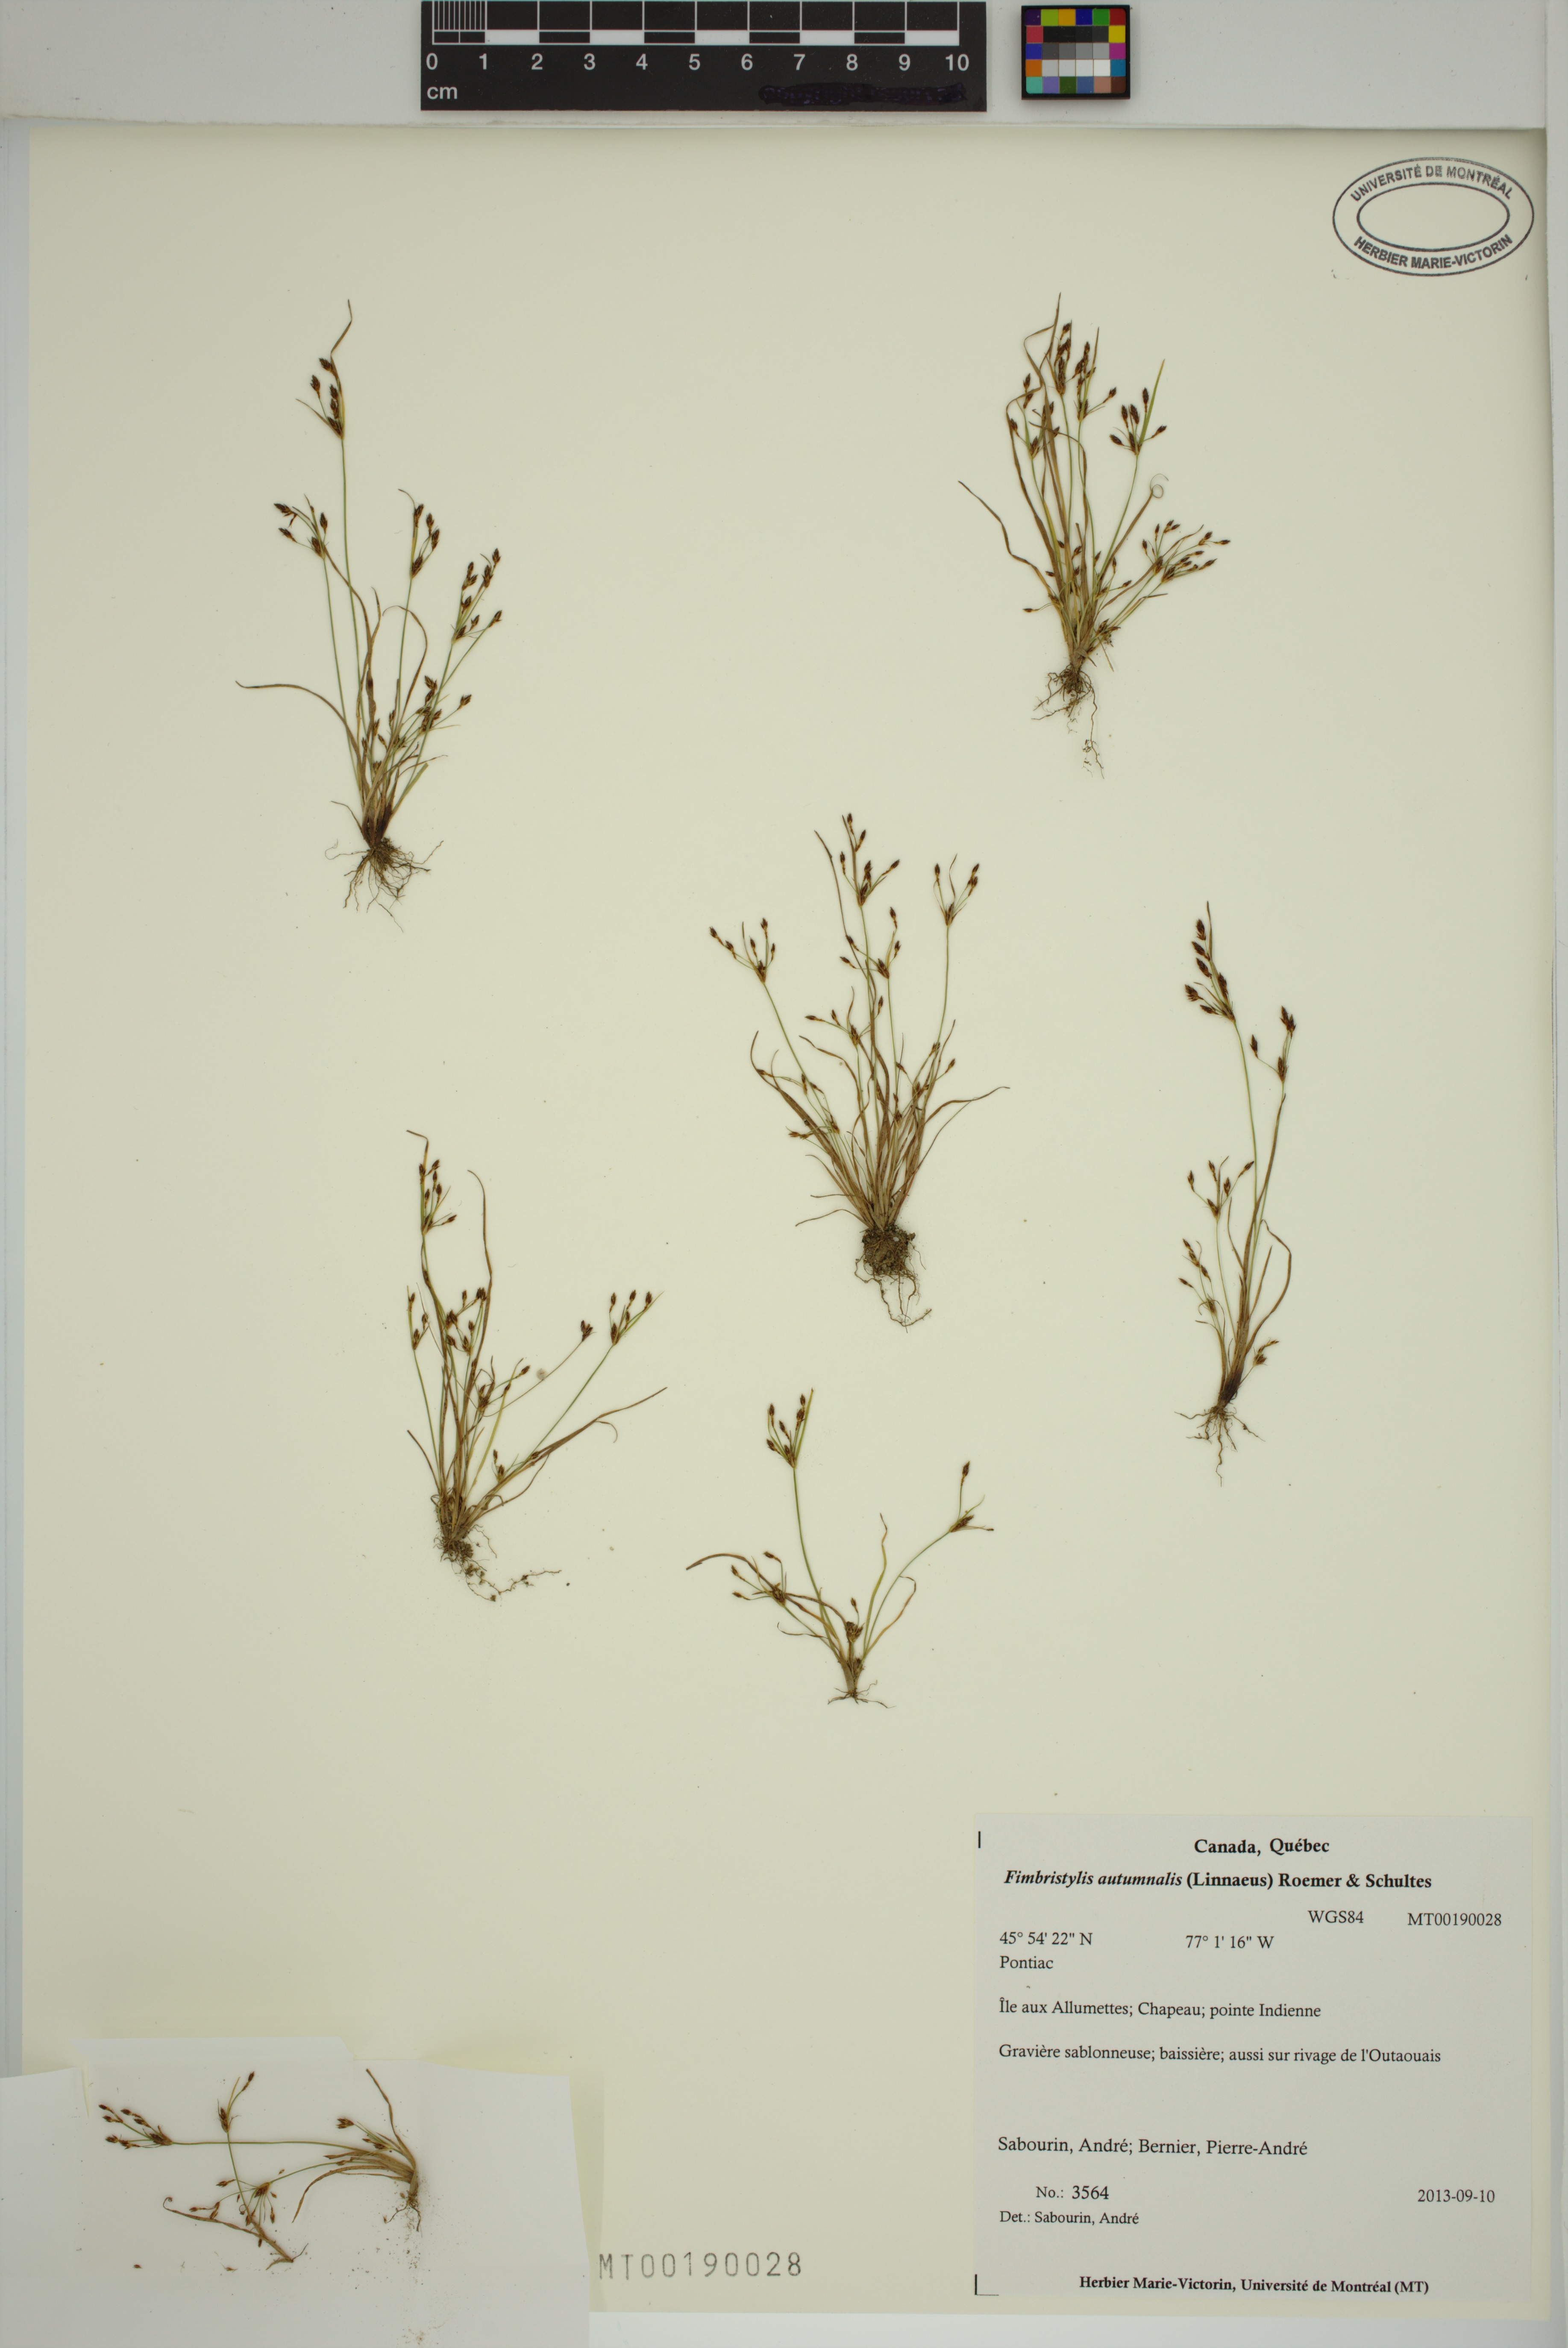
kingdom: Plantae
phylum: Tracheophyta
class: Liliopsida
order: Poales
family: Cyperaceae
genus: Fimbristylis
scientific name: Fimbristylis autumnalis
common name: Slender fimbristylis
